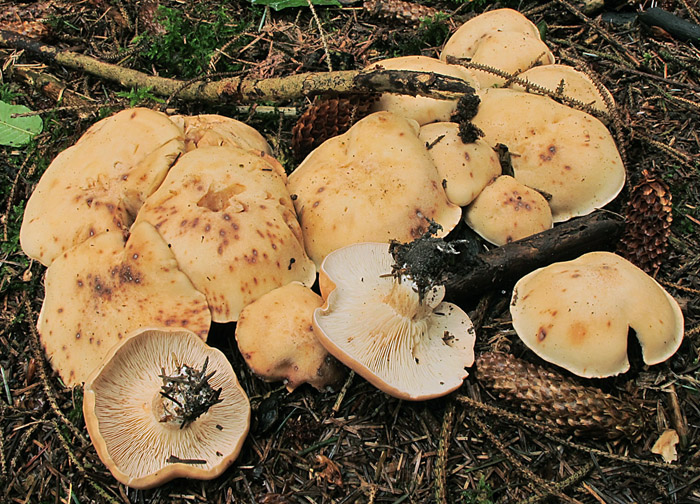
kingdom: Fungi
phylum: Basidiomycota
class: Agaricomycetes
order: Agaricales
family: Entolomataceae
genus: Clitopilus
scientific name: Clitopilus geminus
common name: kødfarvet troldhat
